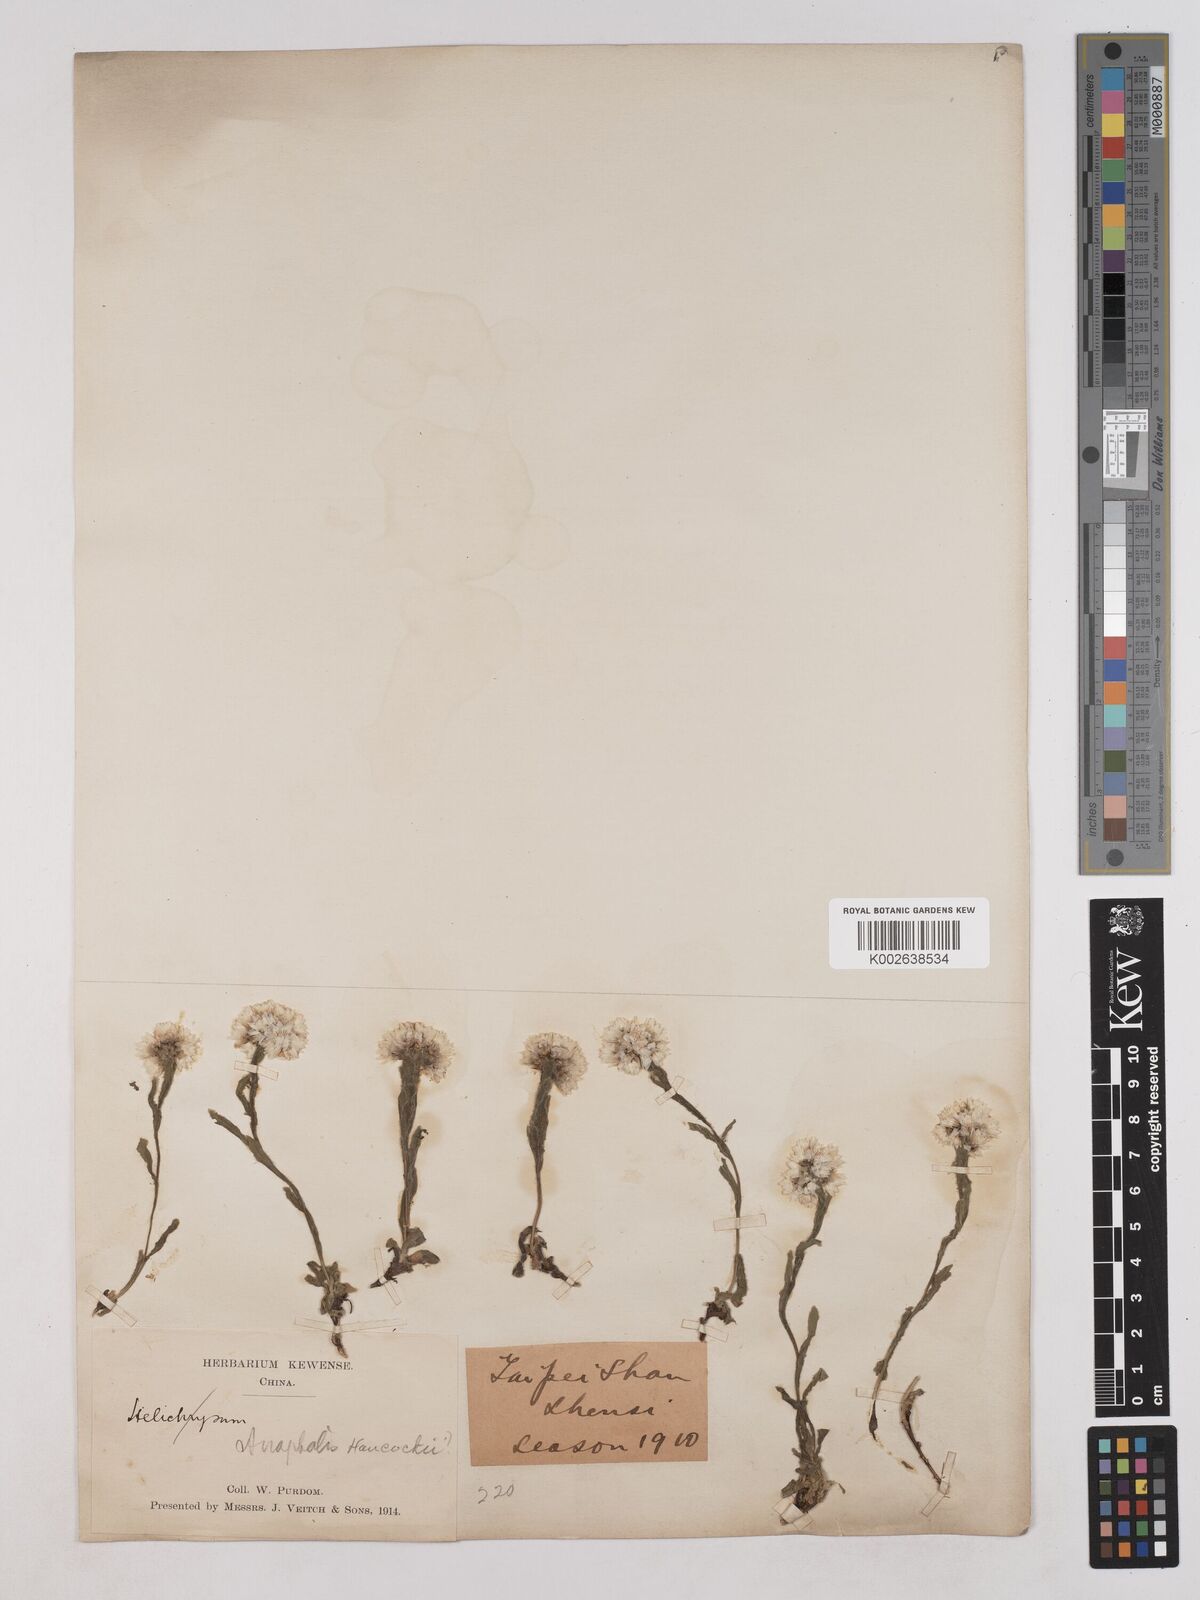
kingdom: Plantae
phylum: Tracheophyta
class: Magnoliopsida
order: Asterales
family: Asteraceae
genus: Anaphalis
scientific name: Anaphalis
